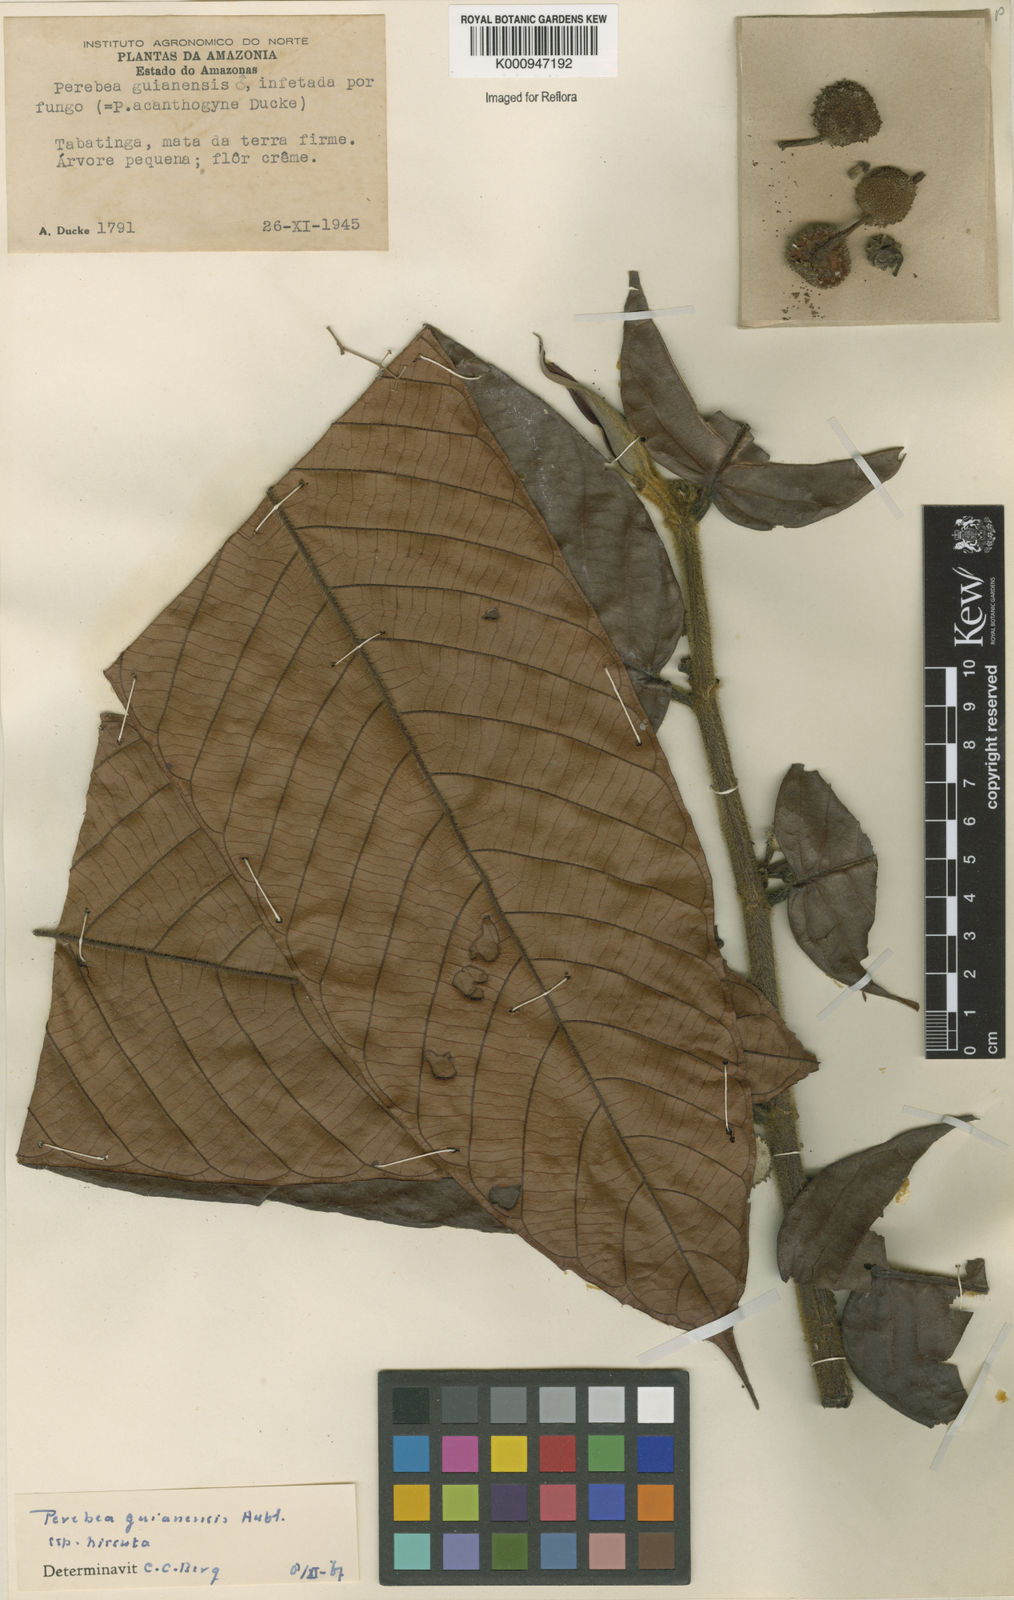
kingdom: Plantae
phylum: Tracheophyta
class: Magnoliopsida
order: Rosales
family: Moraceae
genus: Perebea
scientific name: Perebea guianensis
